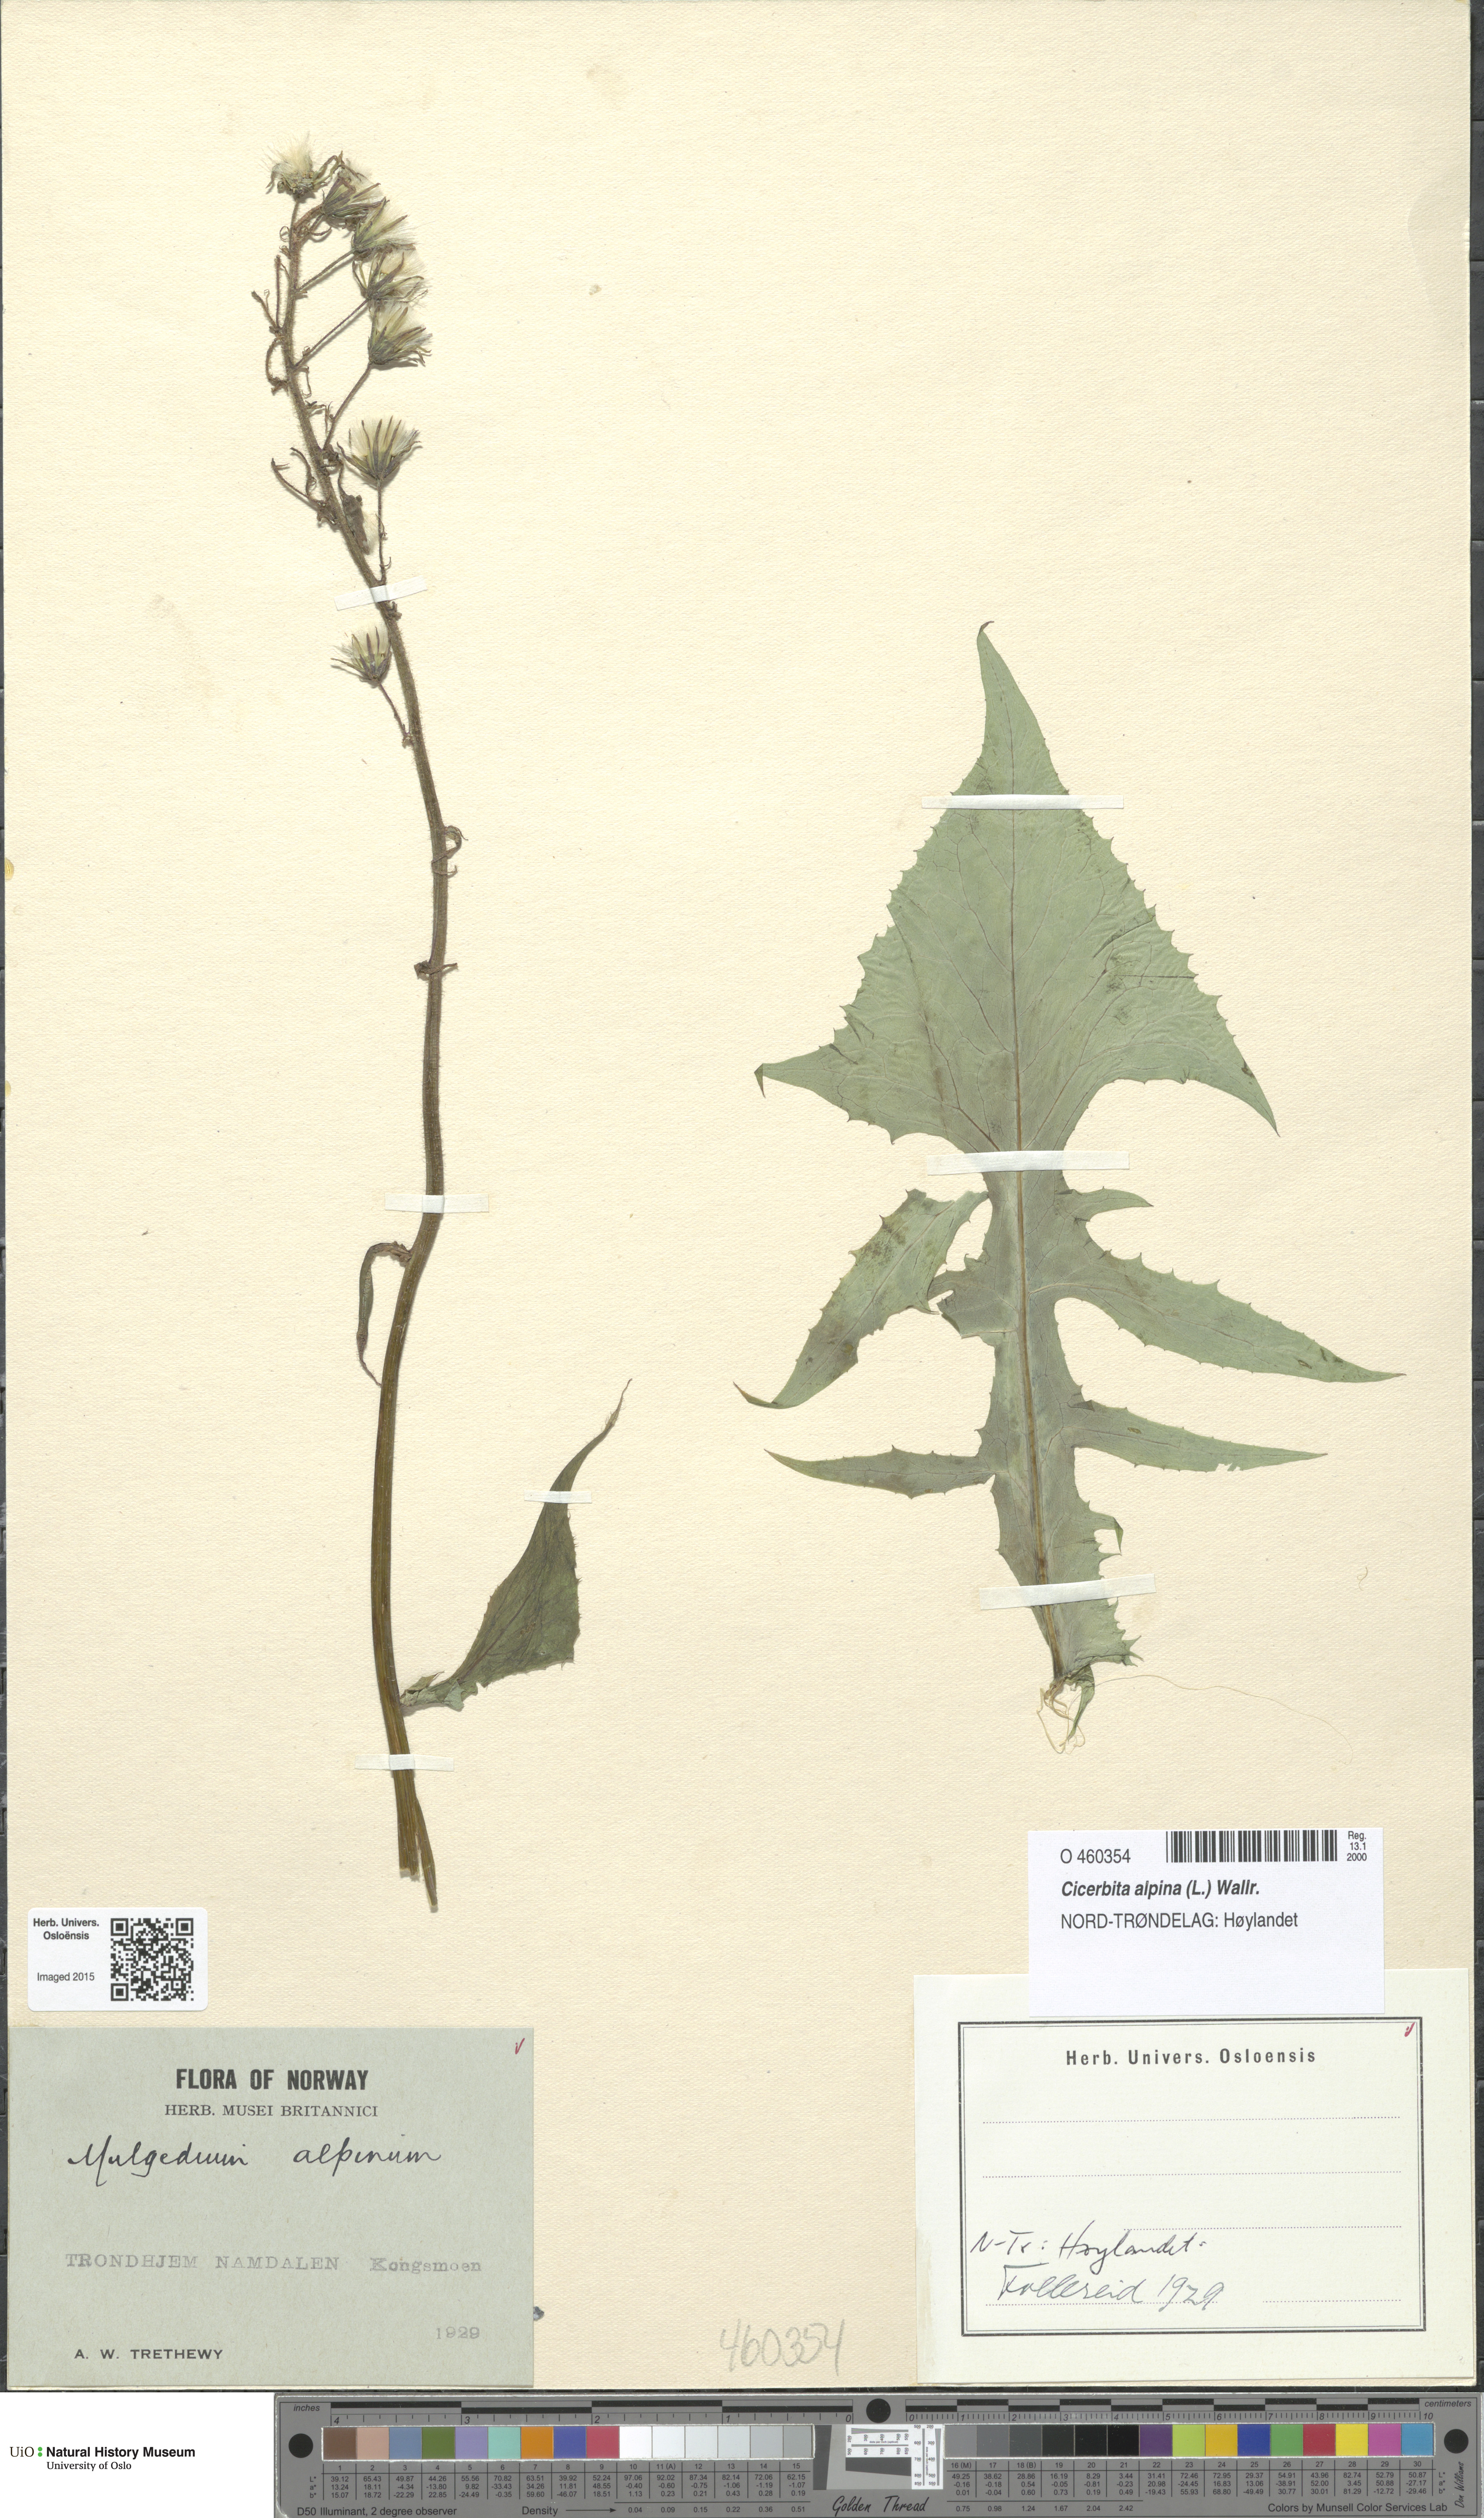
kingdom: Plantae
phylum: Tracheophyta
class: Magnoliopsida
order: Asterales
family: Asteraceae
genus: Cicerbita
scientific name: Cicerbita alpina
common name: Alpine blue-sow-thistle
